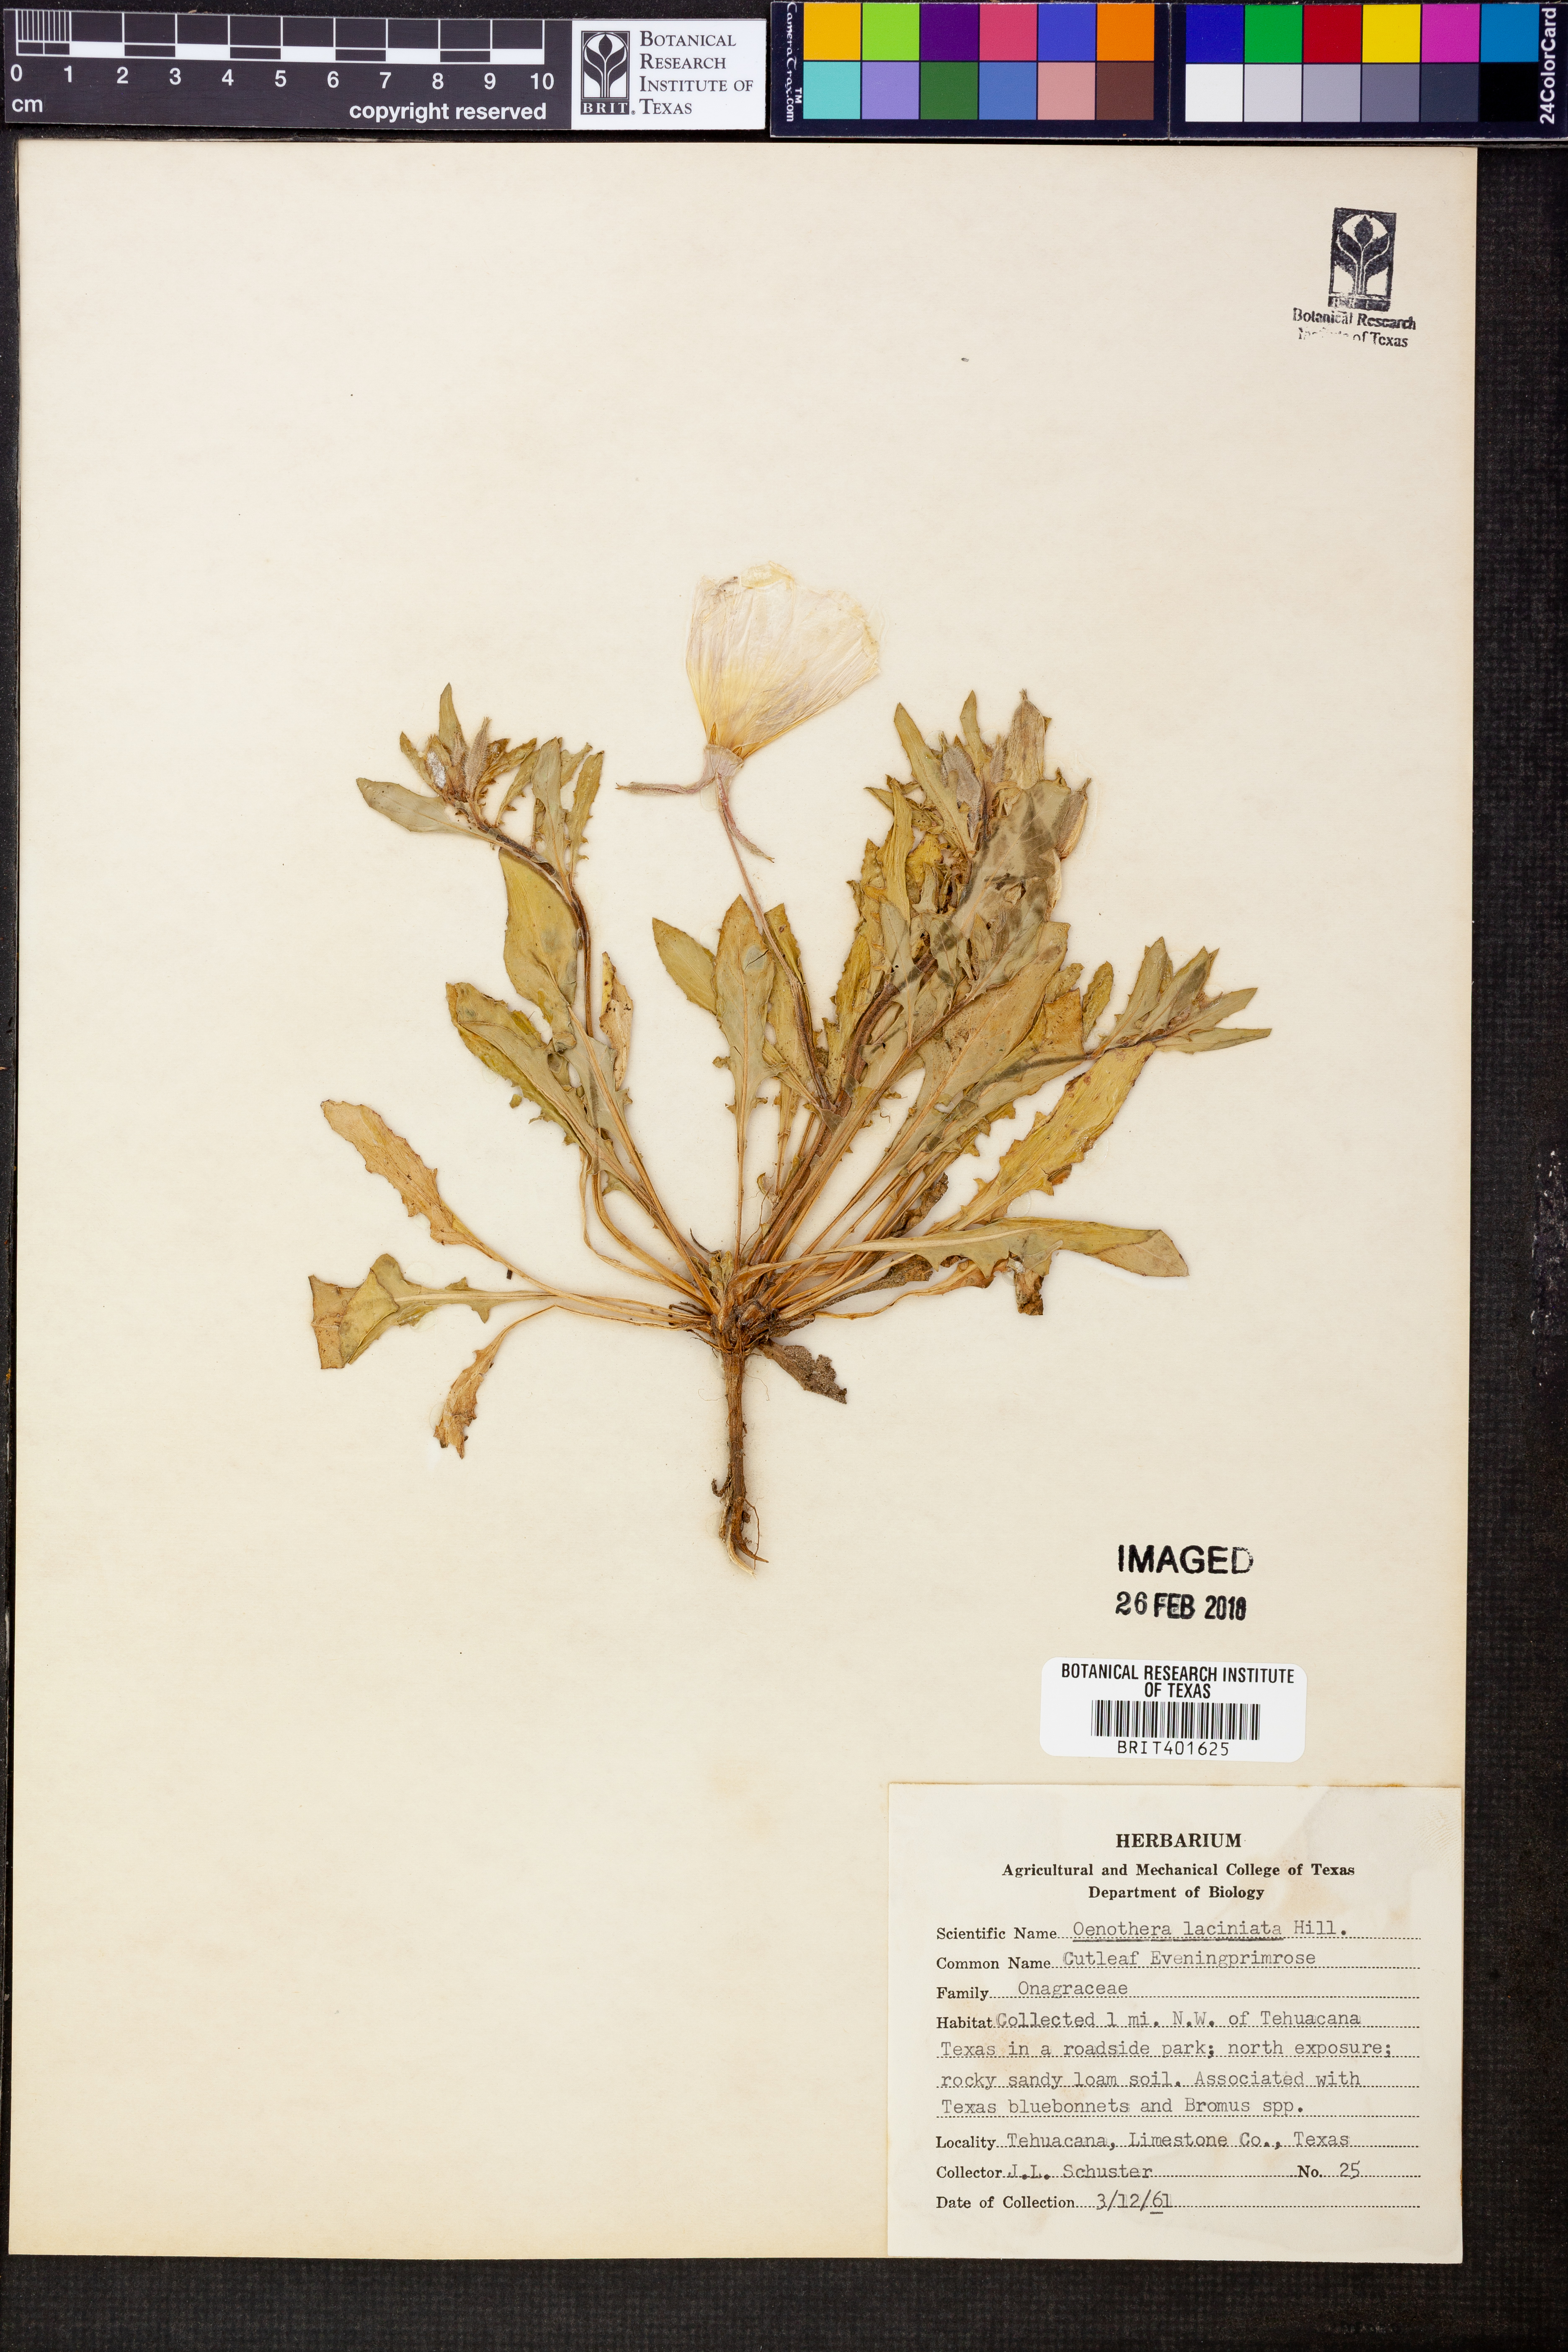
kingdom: Plantae
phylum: Tracheophyta
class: Magnoliopsida
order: Myrtales
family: Onagraceae
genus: Oenothera
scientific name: Oenothera laciniata
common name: Cut-leaved evening-primrose
